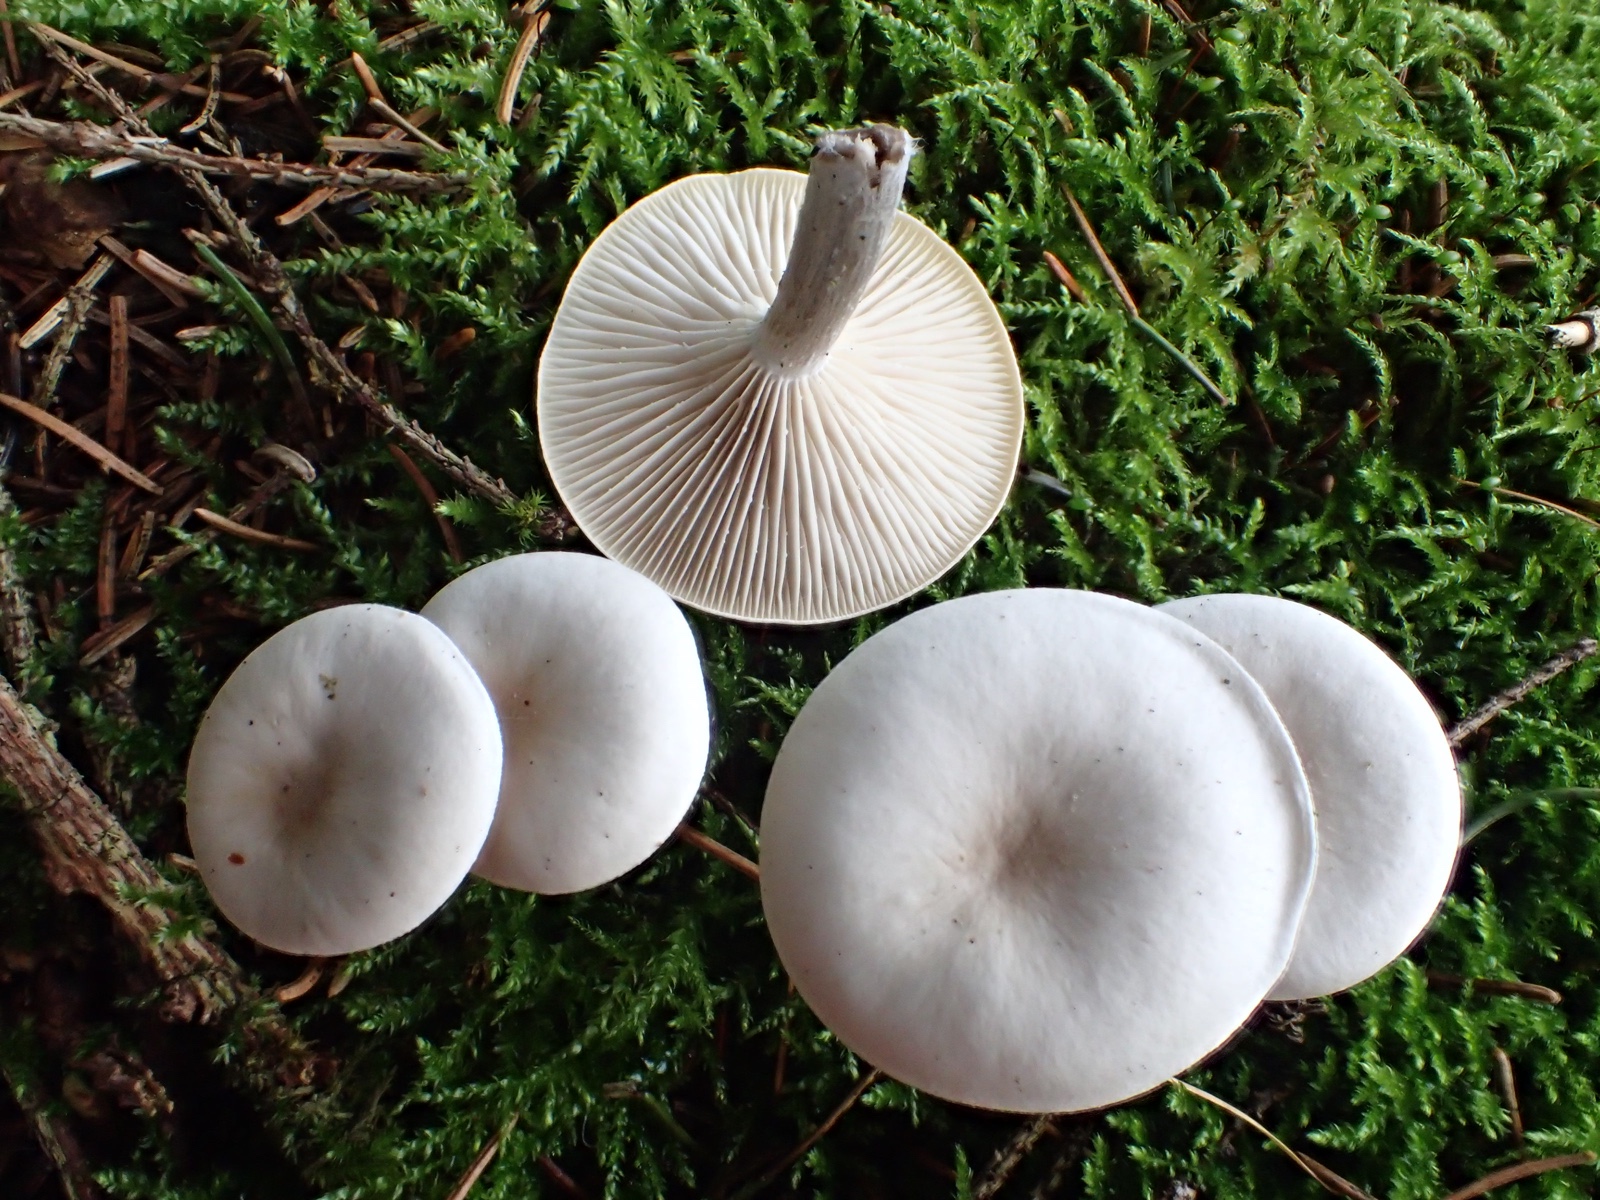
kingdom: Fungi
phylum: Basidiomycota
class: Agaricomycetes
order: Agaricales
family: Tricholomataceae
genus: Clitocybe
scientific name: Clitocybe
